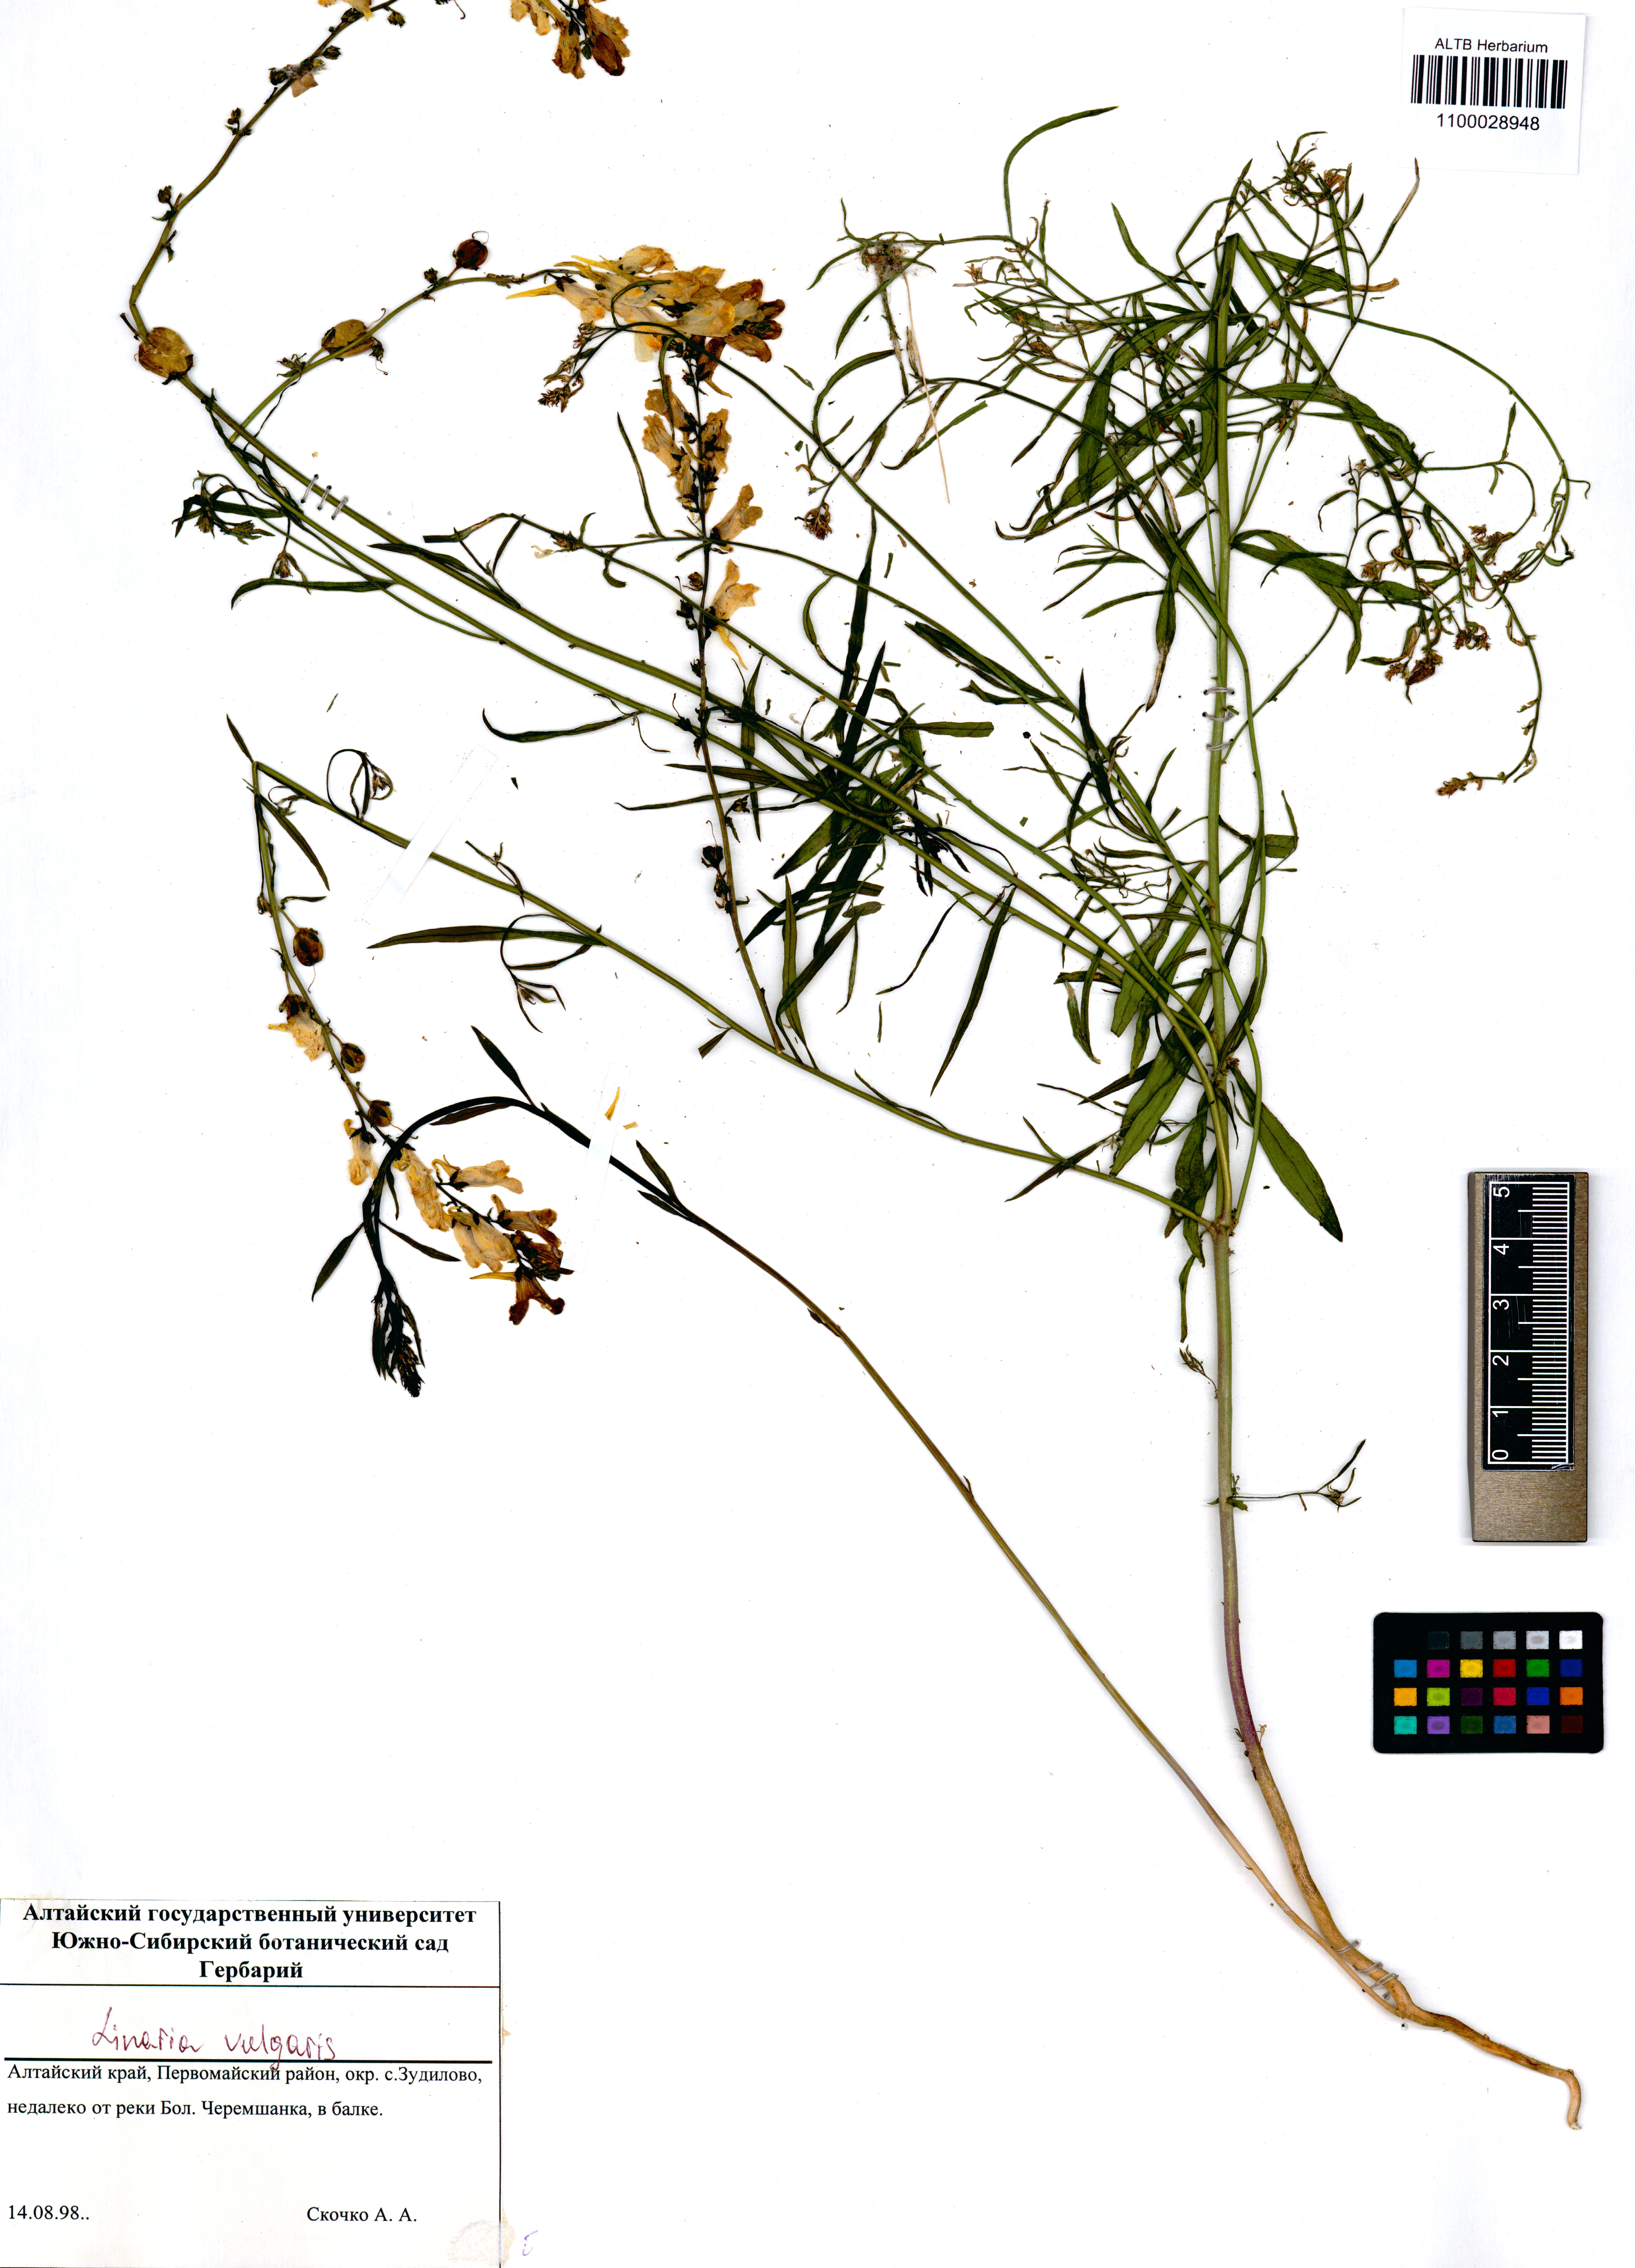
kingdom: Plantae
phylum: Tracheophyta
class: Magnoliopsida
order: Lamiales
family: Plantaginaceae
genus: Linaria
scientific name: Linaria vulgaris
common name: Butter and eggs
